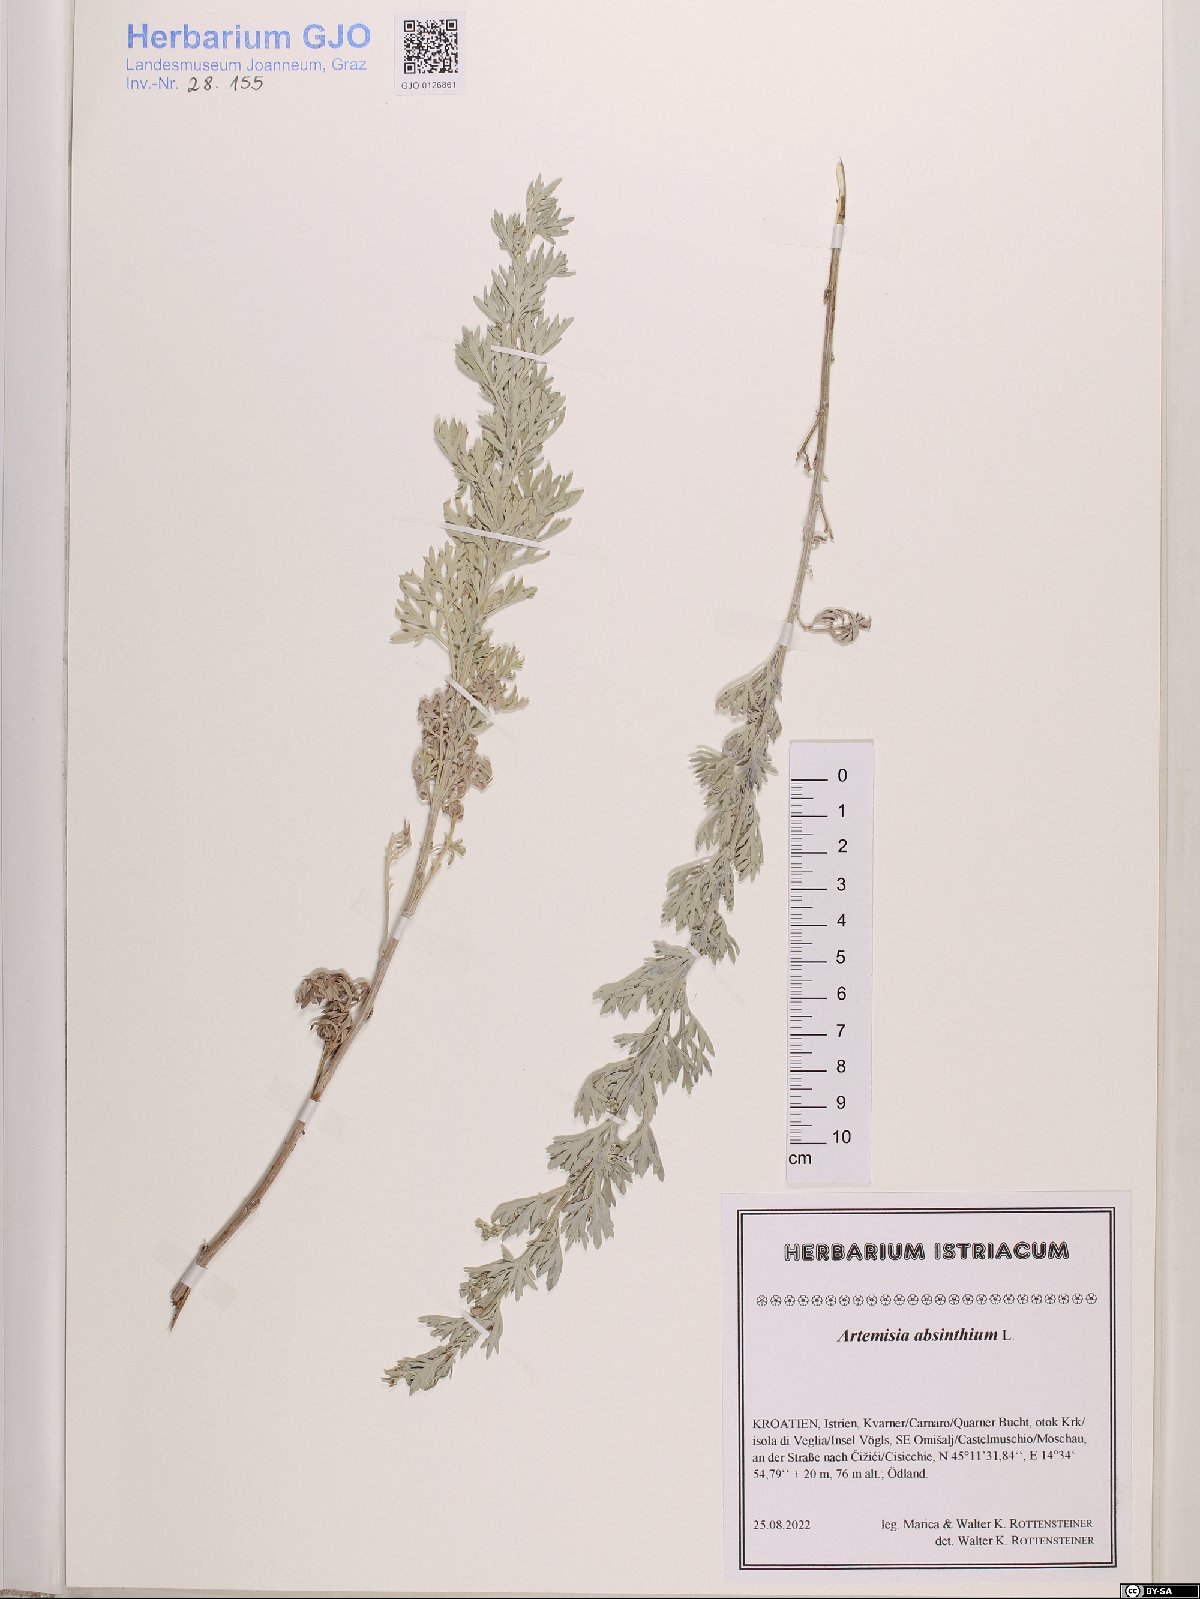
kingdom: Plantae
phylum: Tracheophyta
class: Magnoliopsida
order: Asterales
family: Asteraceae
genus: Artemisia
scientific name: Artemisia absinthium
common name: Wormwood
